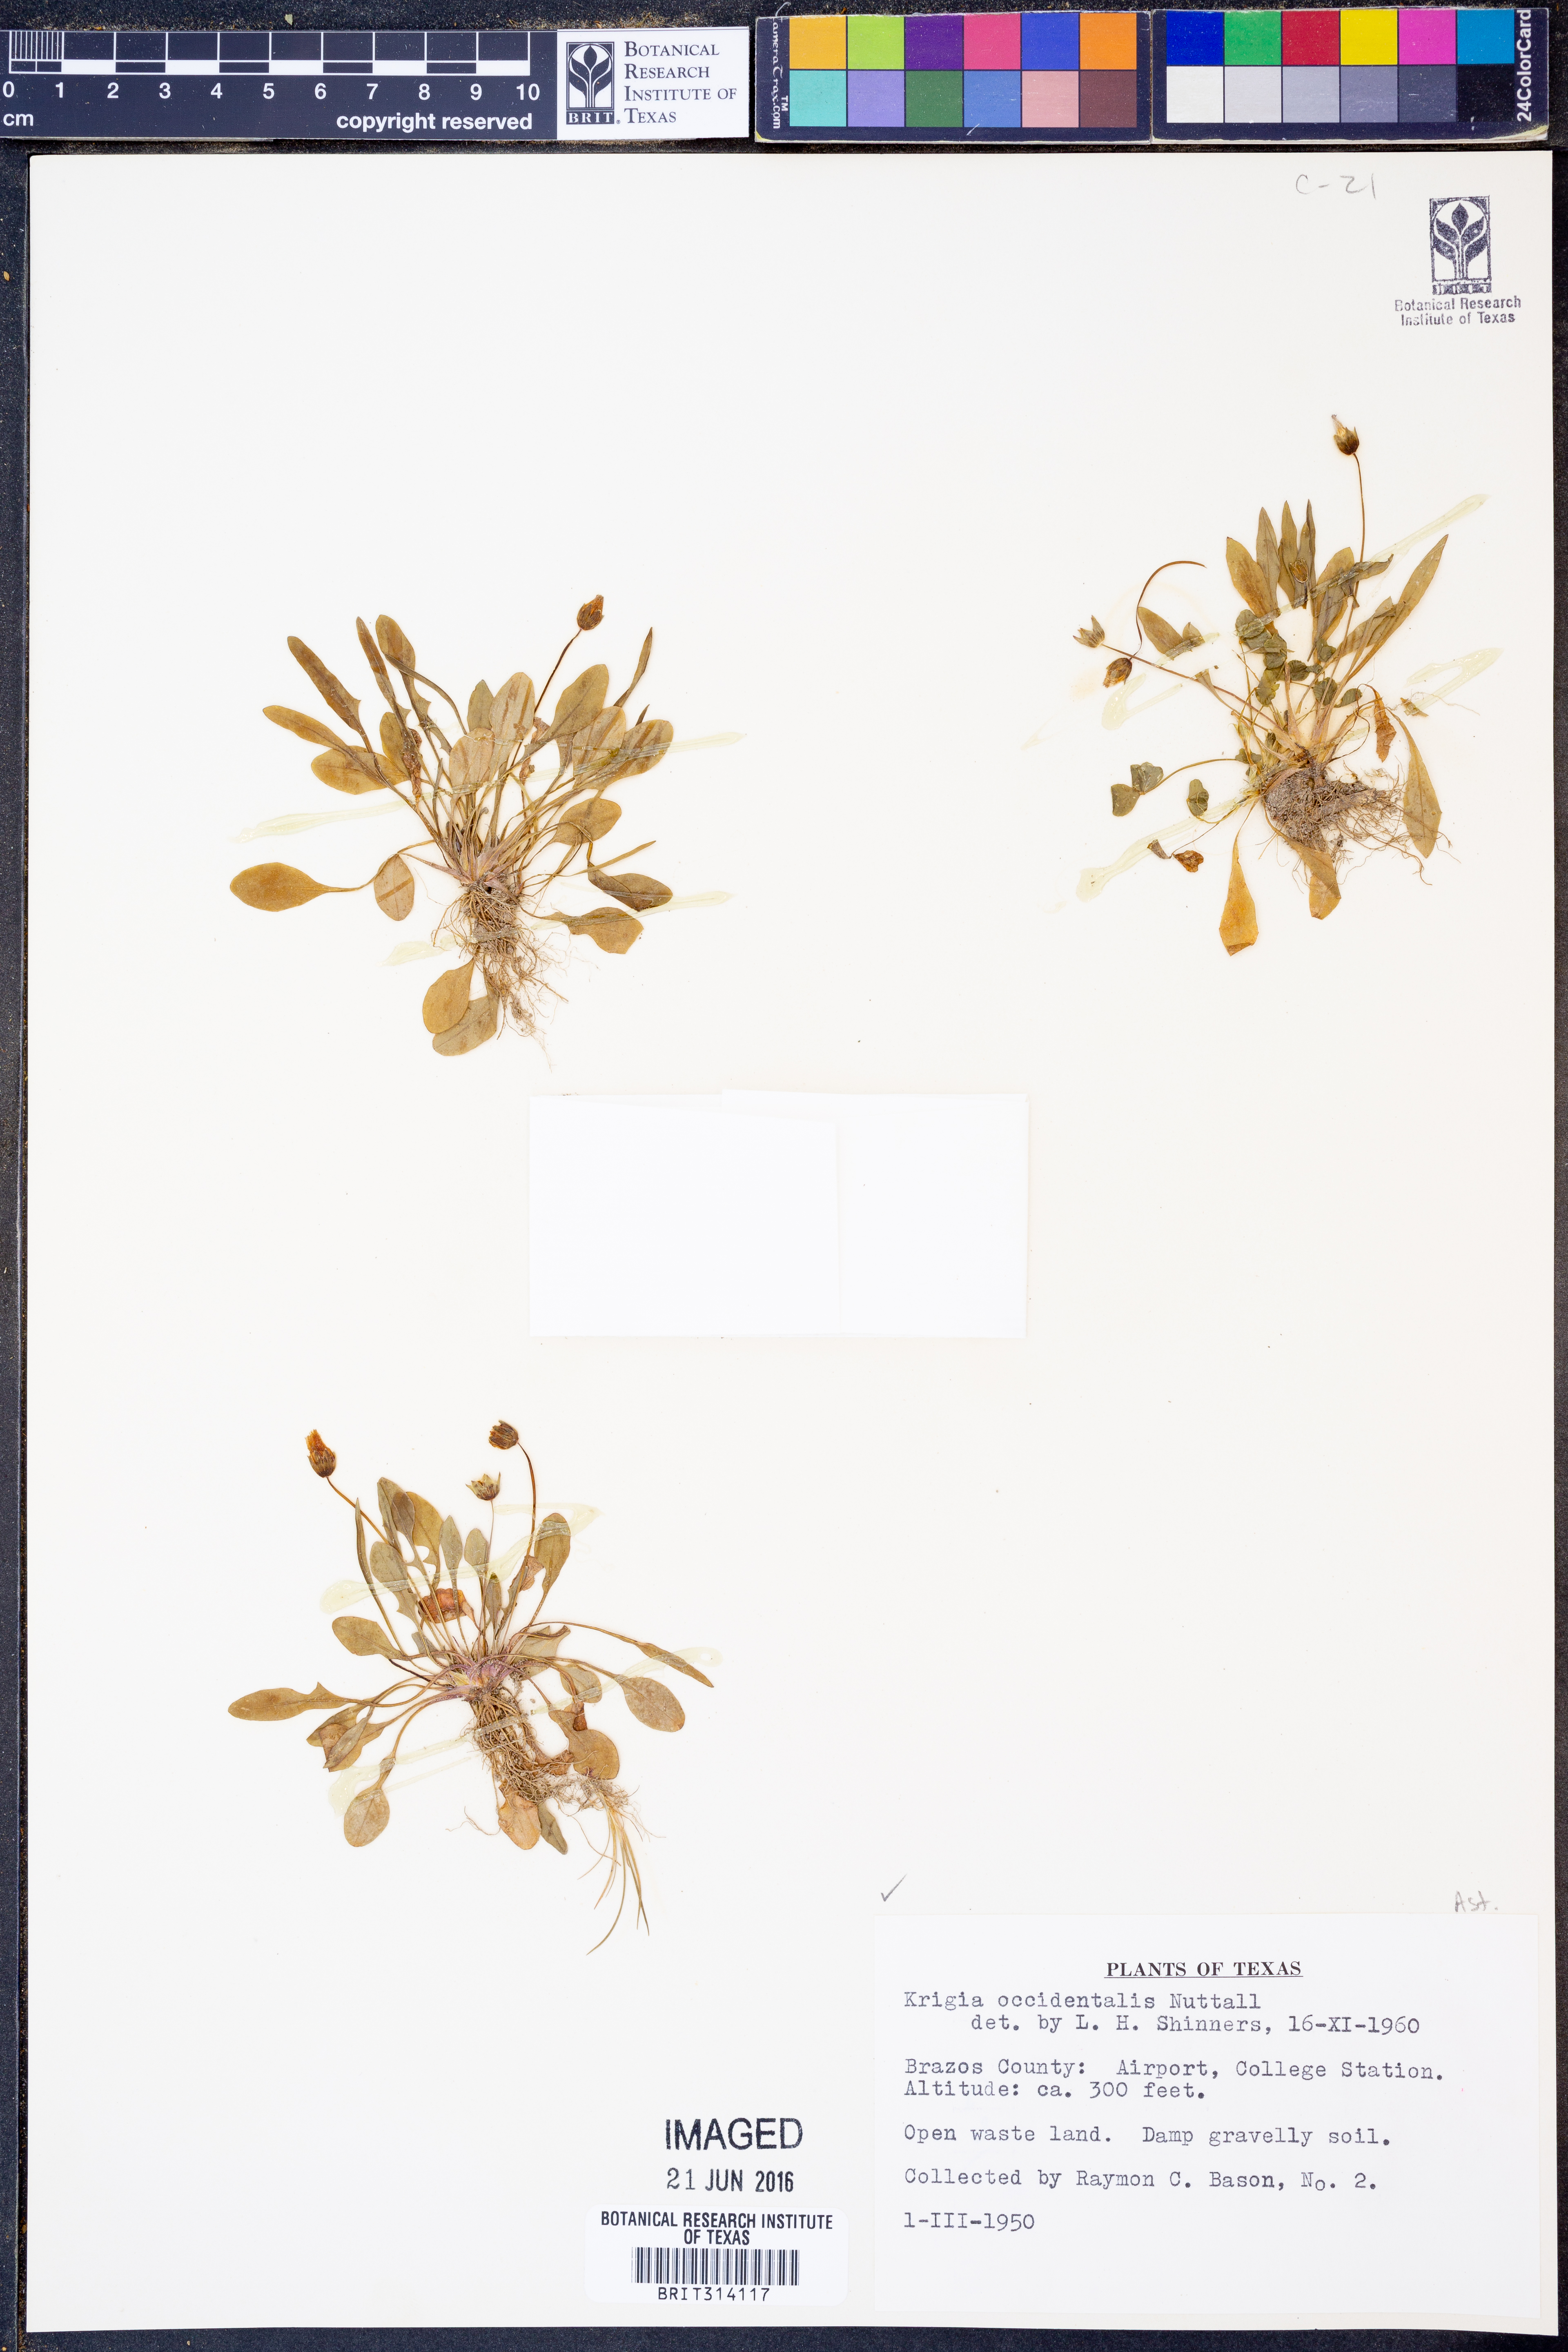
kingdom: Plantae
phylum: Tracheophyta
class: Magnoliopsida
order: Asterales
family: Asteraceae
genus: Krigia
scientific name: Krigia occidentalis
